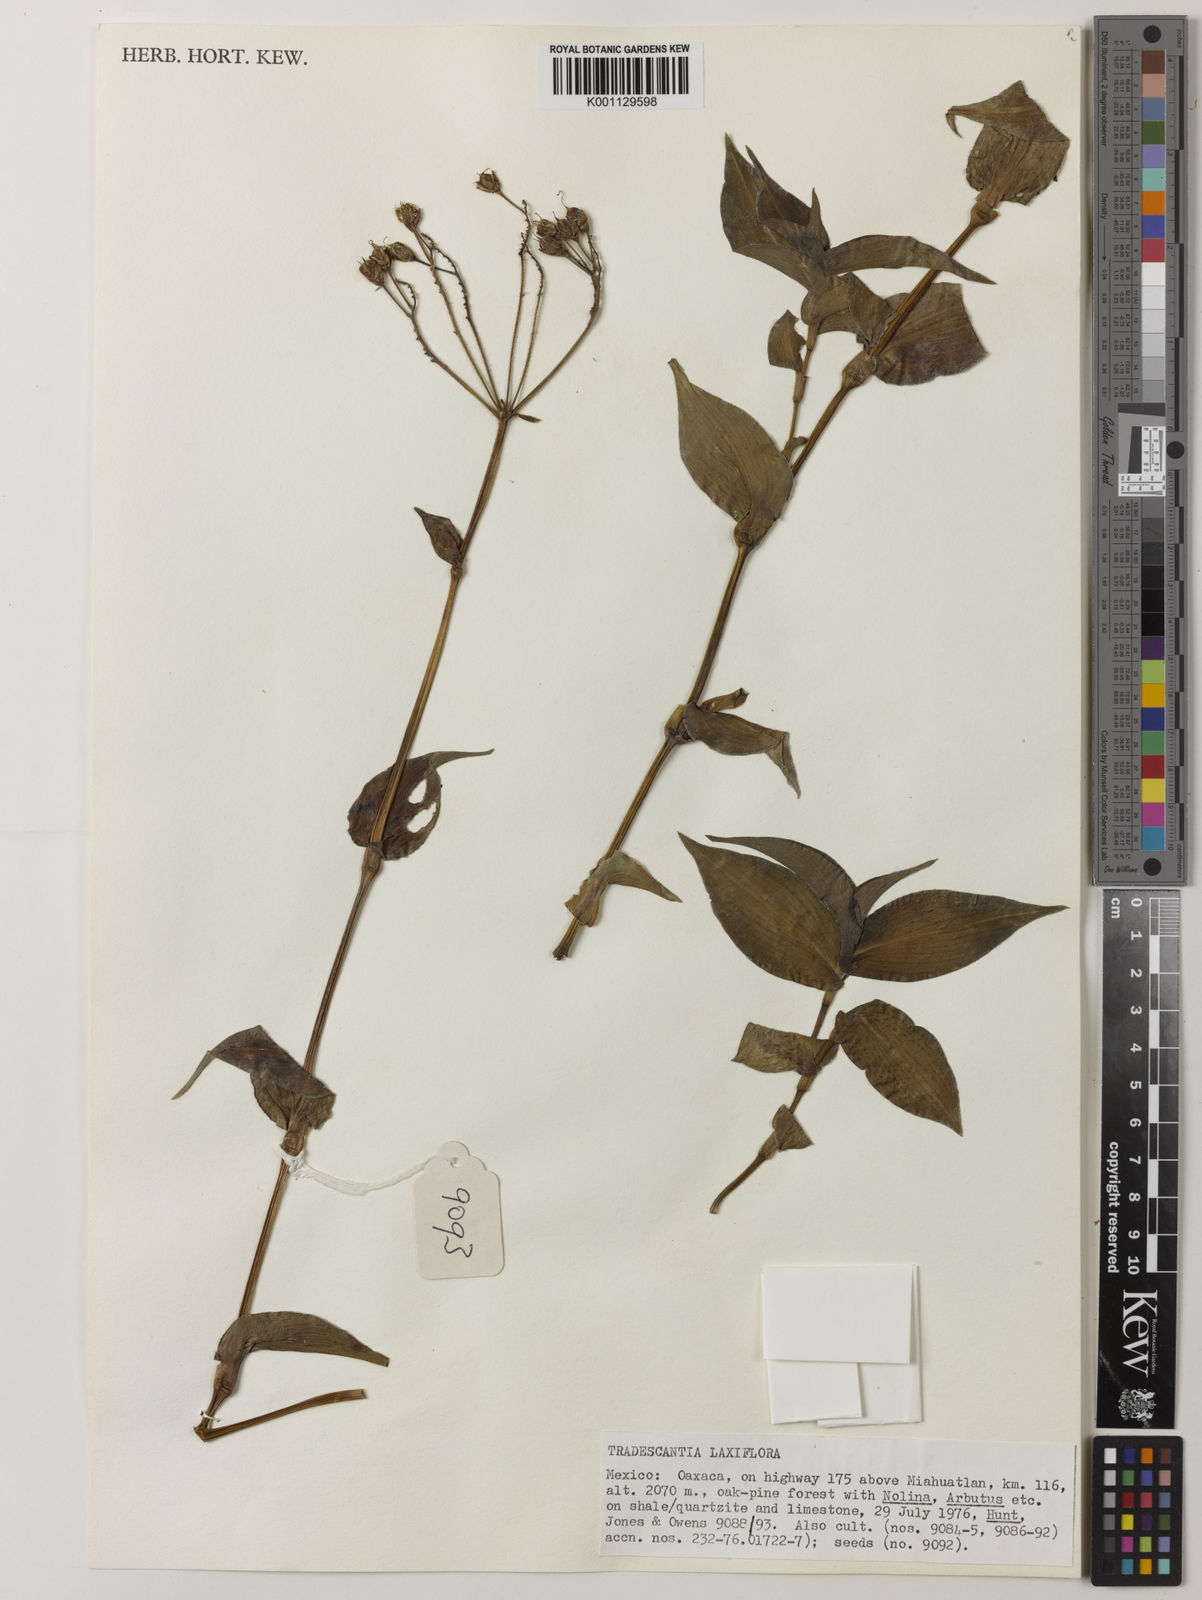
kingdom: Plantae
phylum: Tracheophyta
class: Liliopsida
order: Commelinales
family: Commelinaceae
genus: Thyrsanthemum
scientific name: Thyrsanthemum
